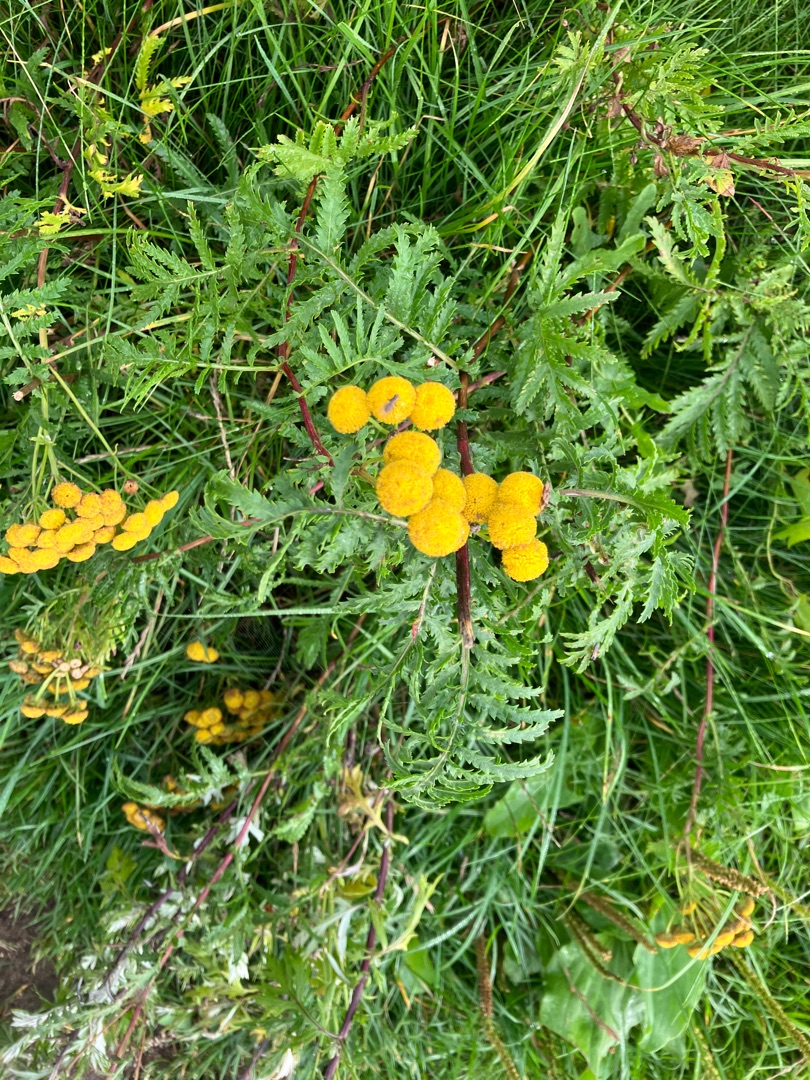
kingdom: Plantae
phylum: Tracheophyta
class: Magnoliopsida
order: Asterales
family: Asteraceae
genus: Tanacetum
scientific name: Tanacetum vulgare
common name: Rejnfan
